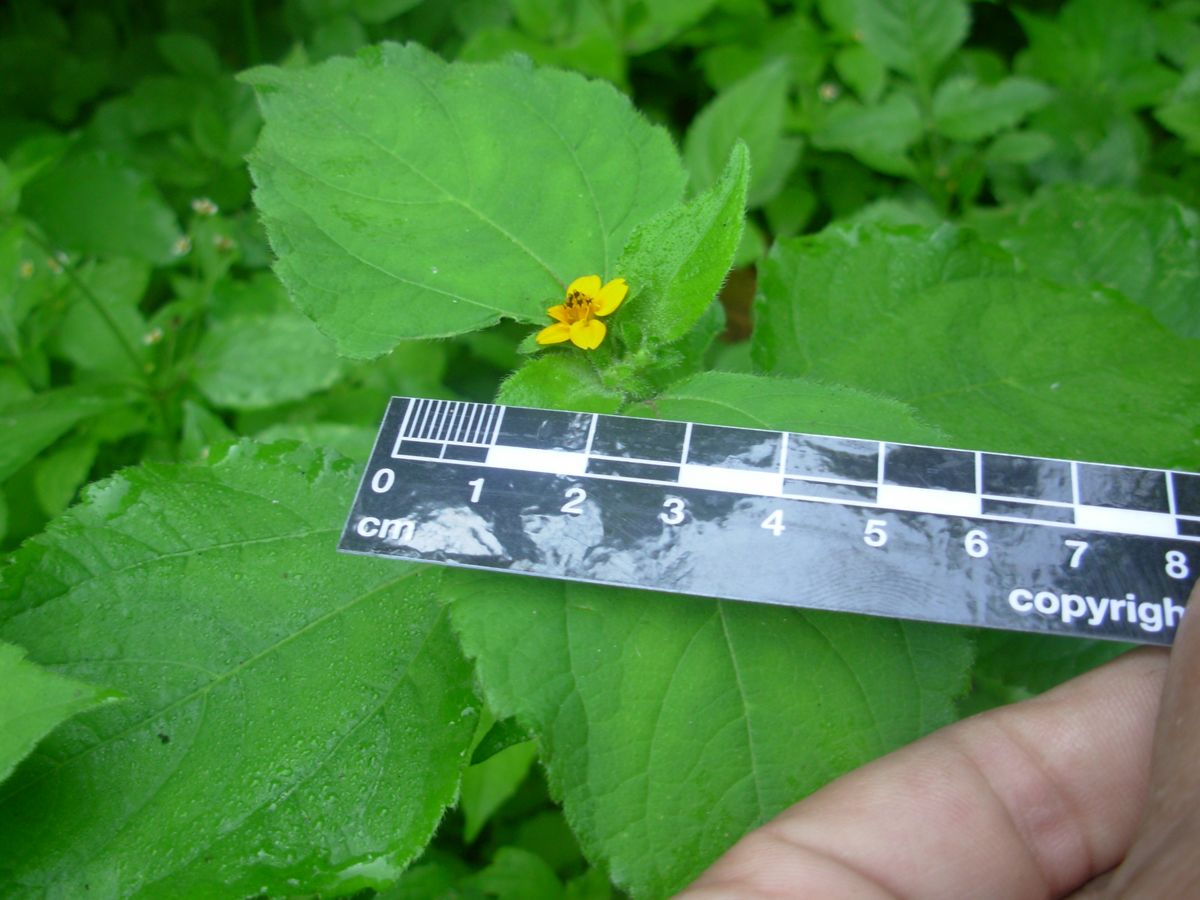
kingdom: Plantae
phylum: Tracheophyta
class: Magnoliopsida
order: Asterales
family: Asteraceae
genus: Wedelia
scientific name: Wedelia acapulcensis
